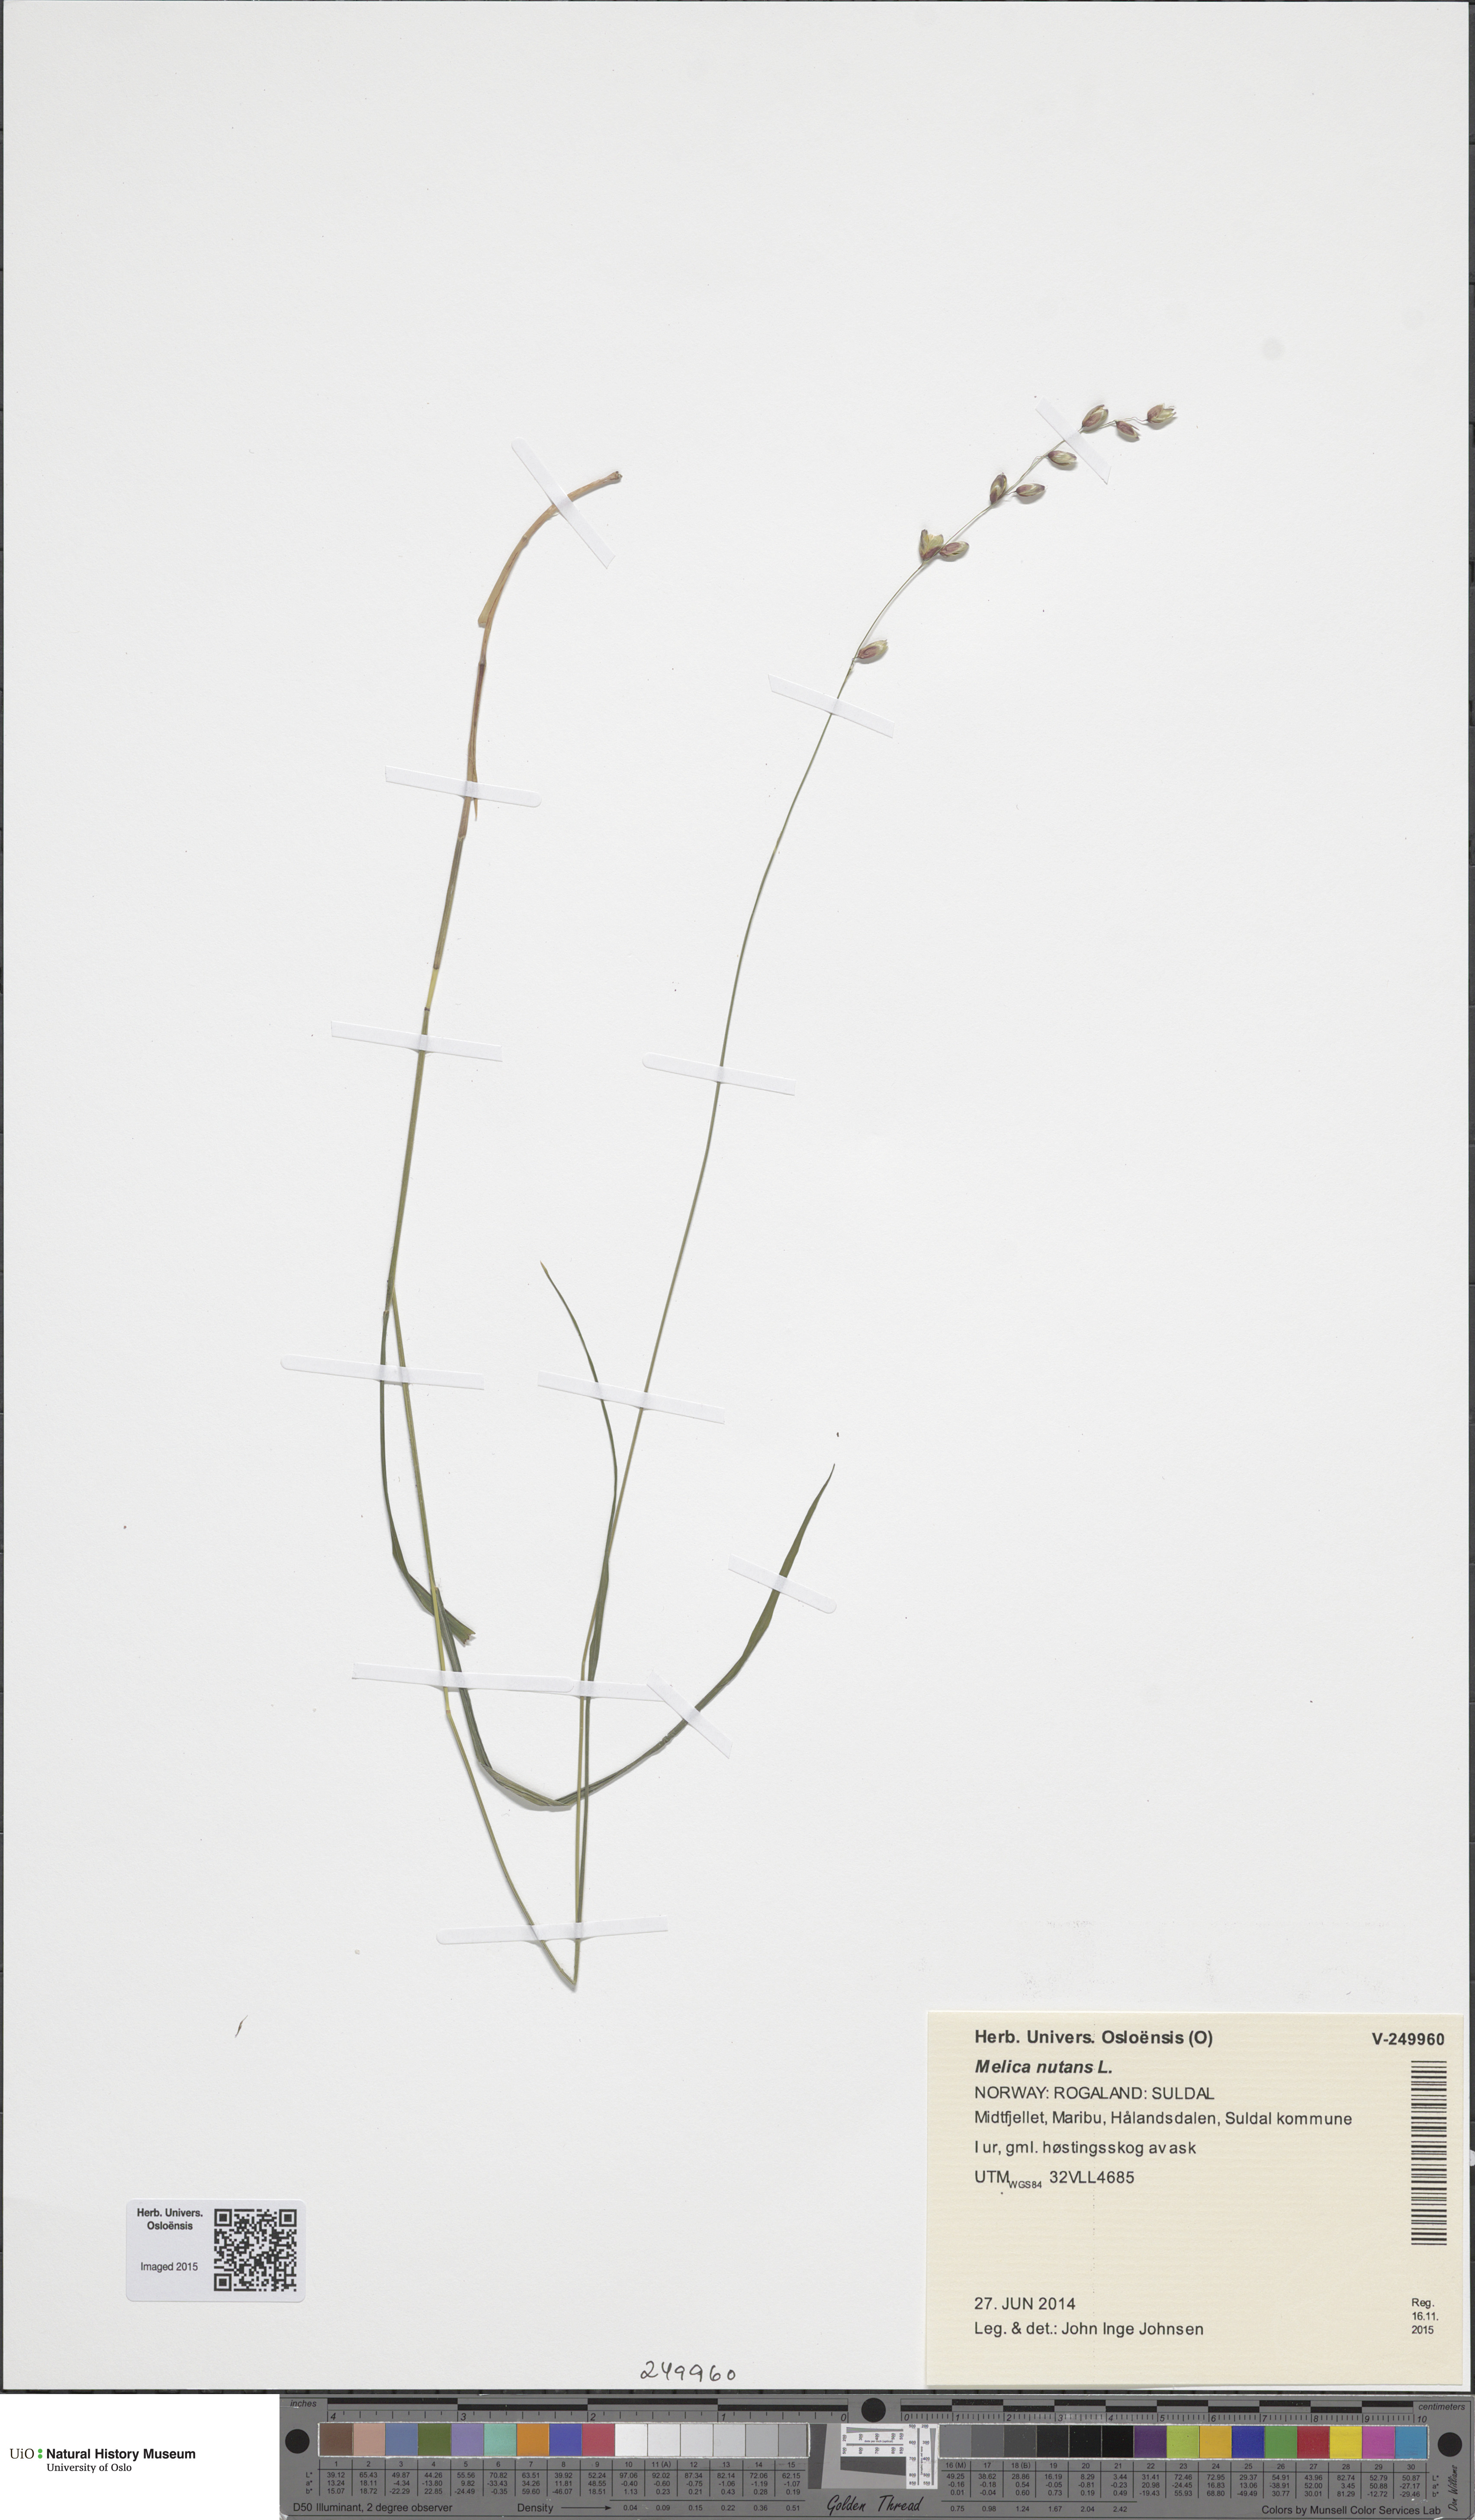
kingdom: Plantae
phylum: Tracheophyta
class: Liliopsida
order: Poales
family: Poaceae
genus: Melica
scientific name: Melica nutans
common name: Mountain melick
